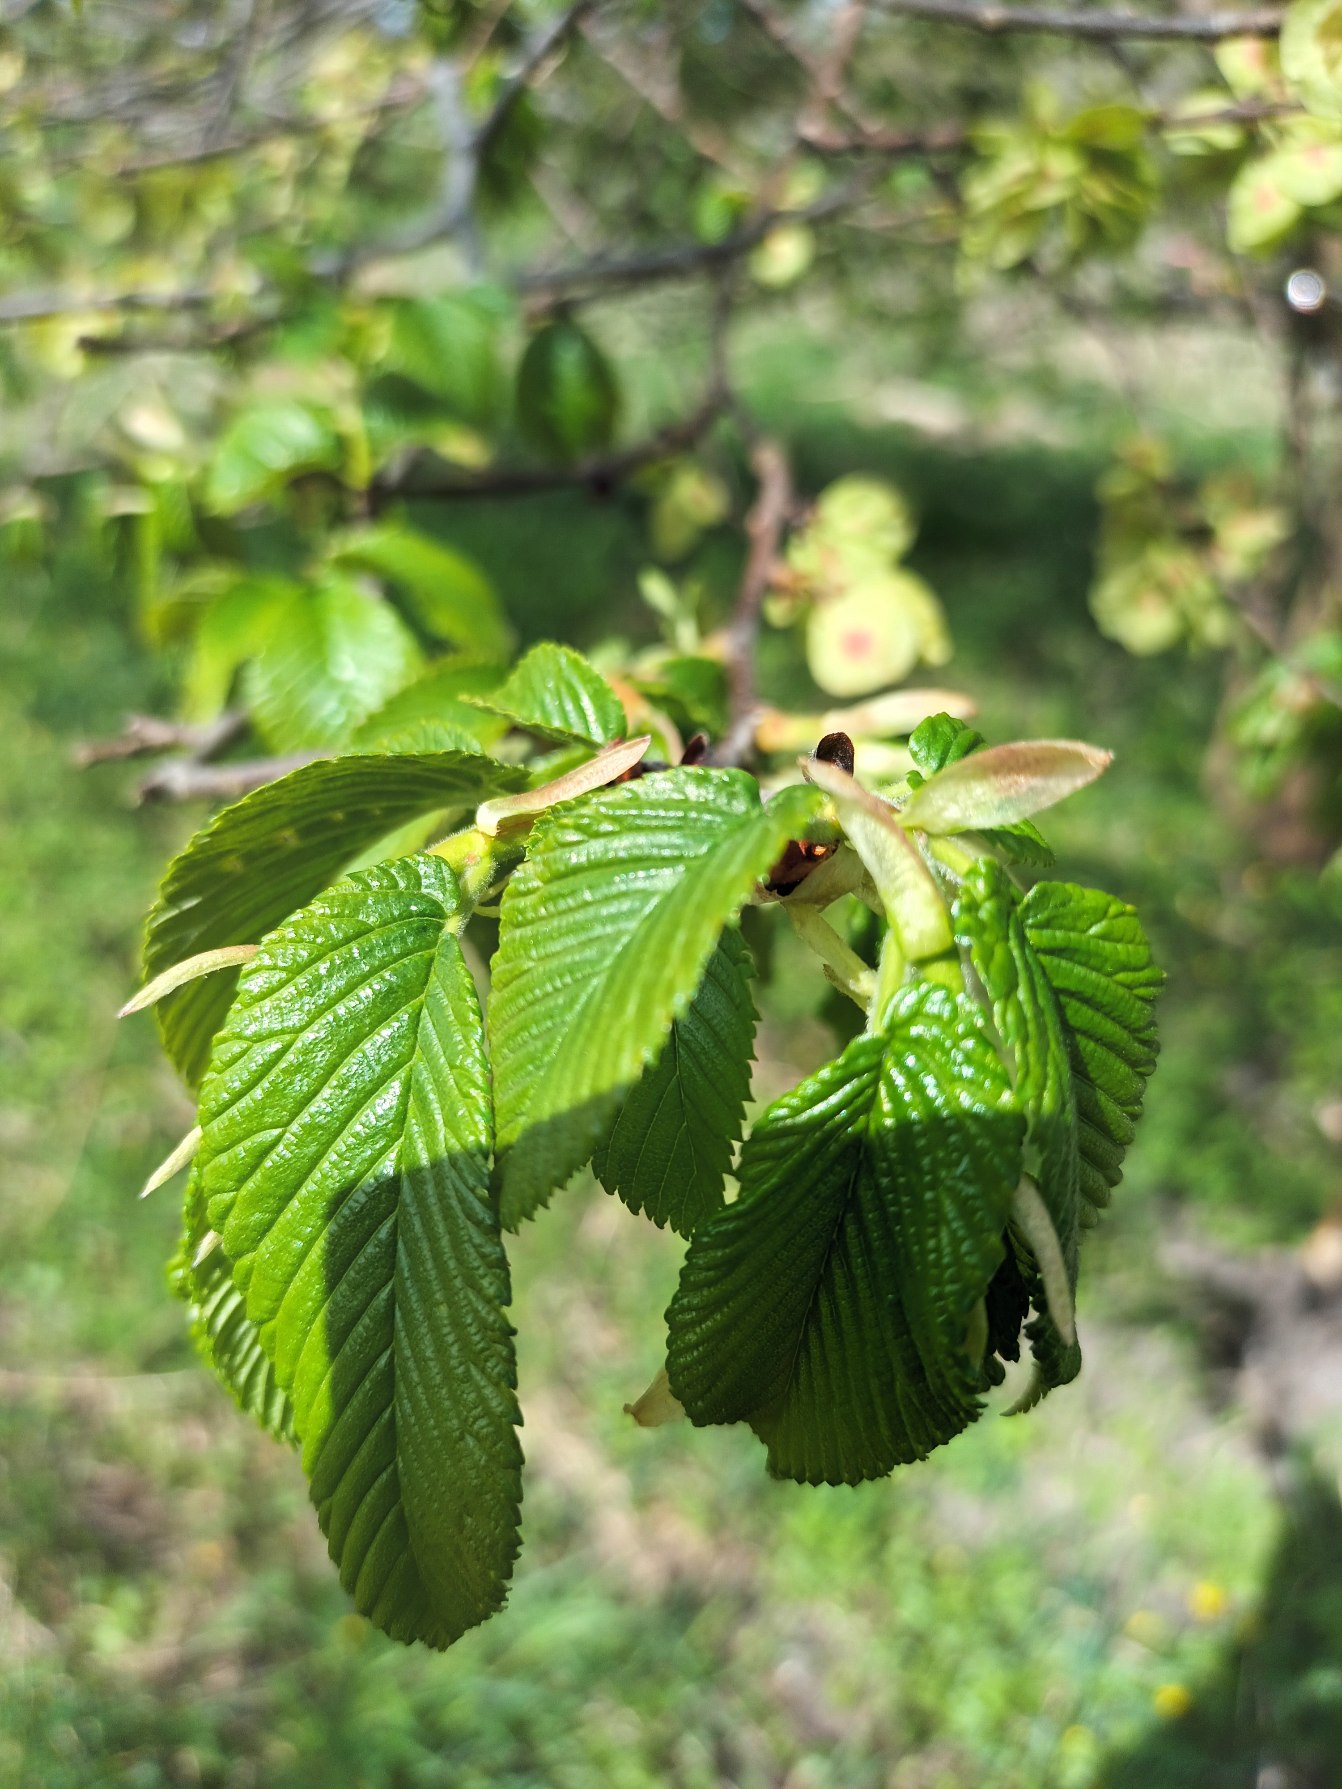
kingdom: Plantae
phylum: Tracheophyta
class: Magnoliopsida
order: Rosales
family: Ulmaceae
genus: Ulmus
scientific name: Ulmus glabra
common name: Skov-elm/storbladet elm
